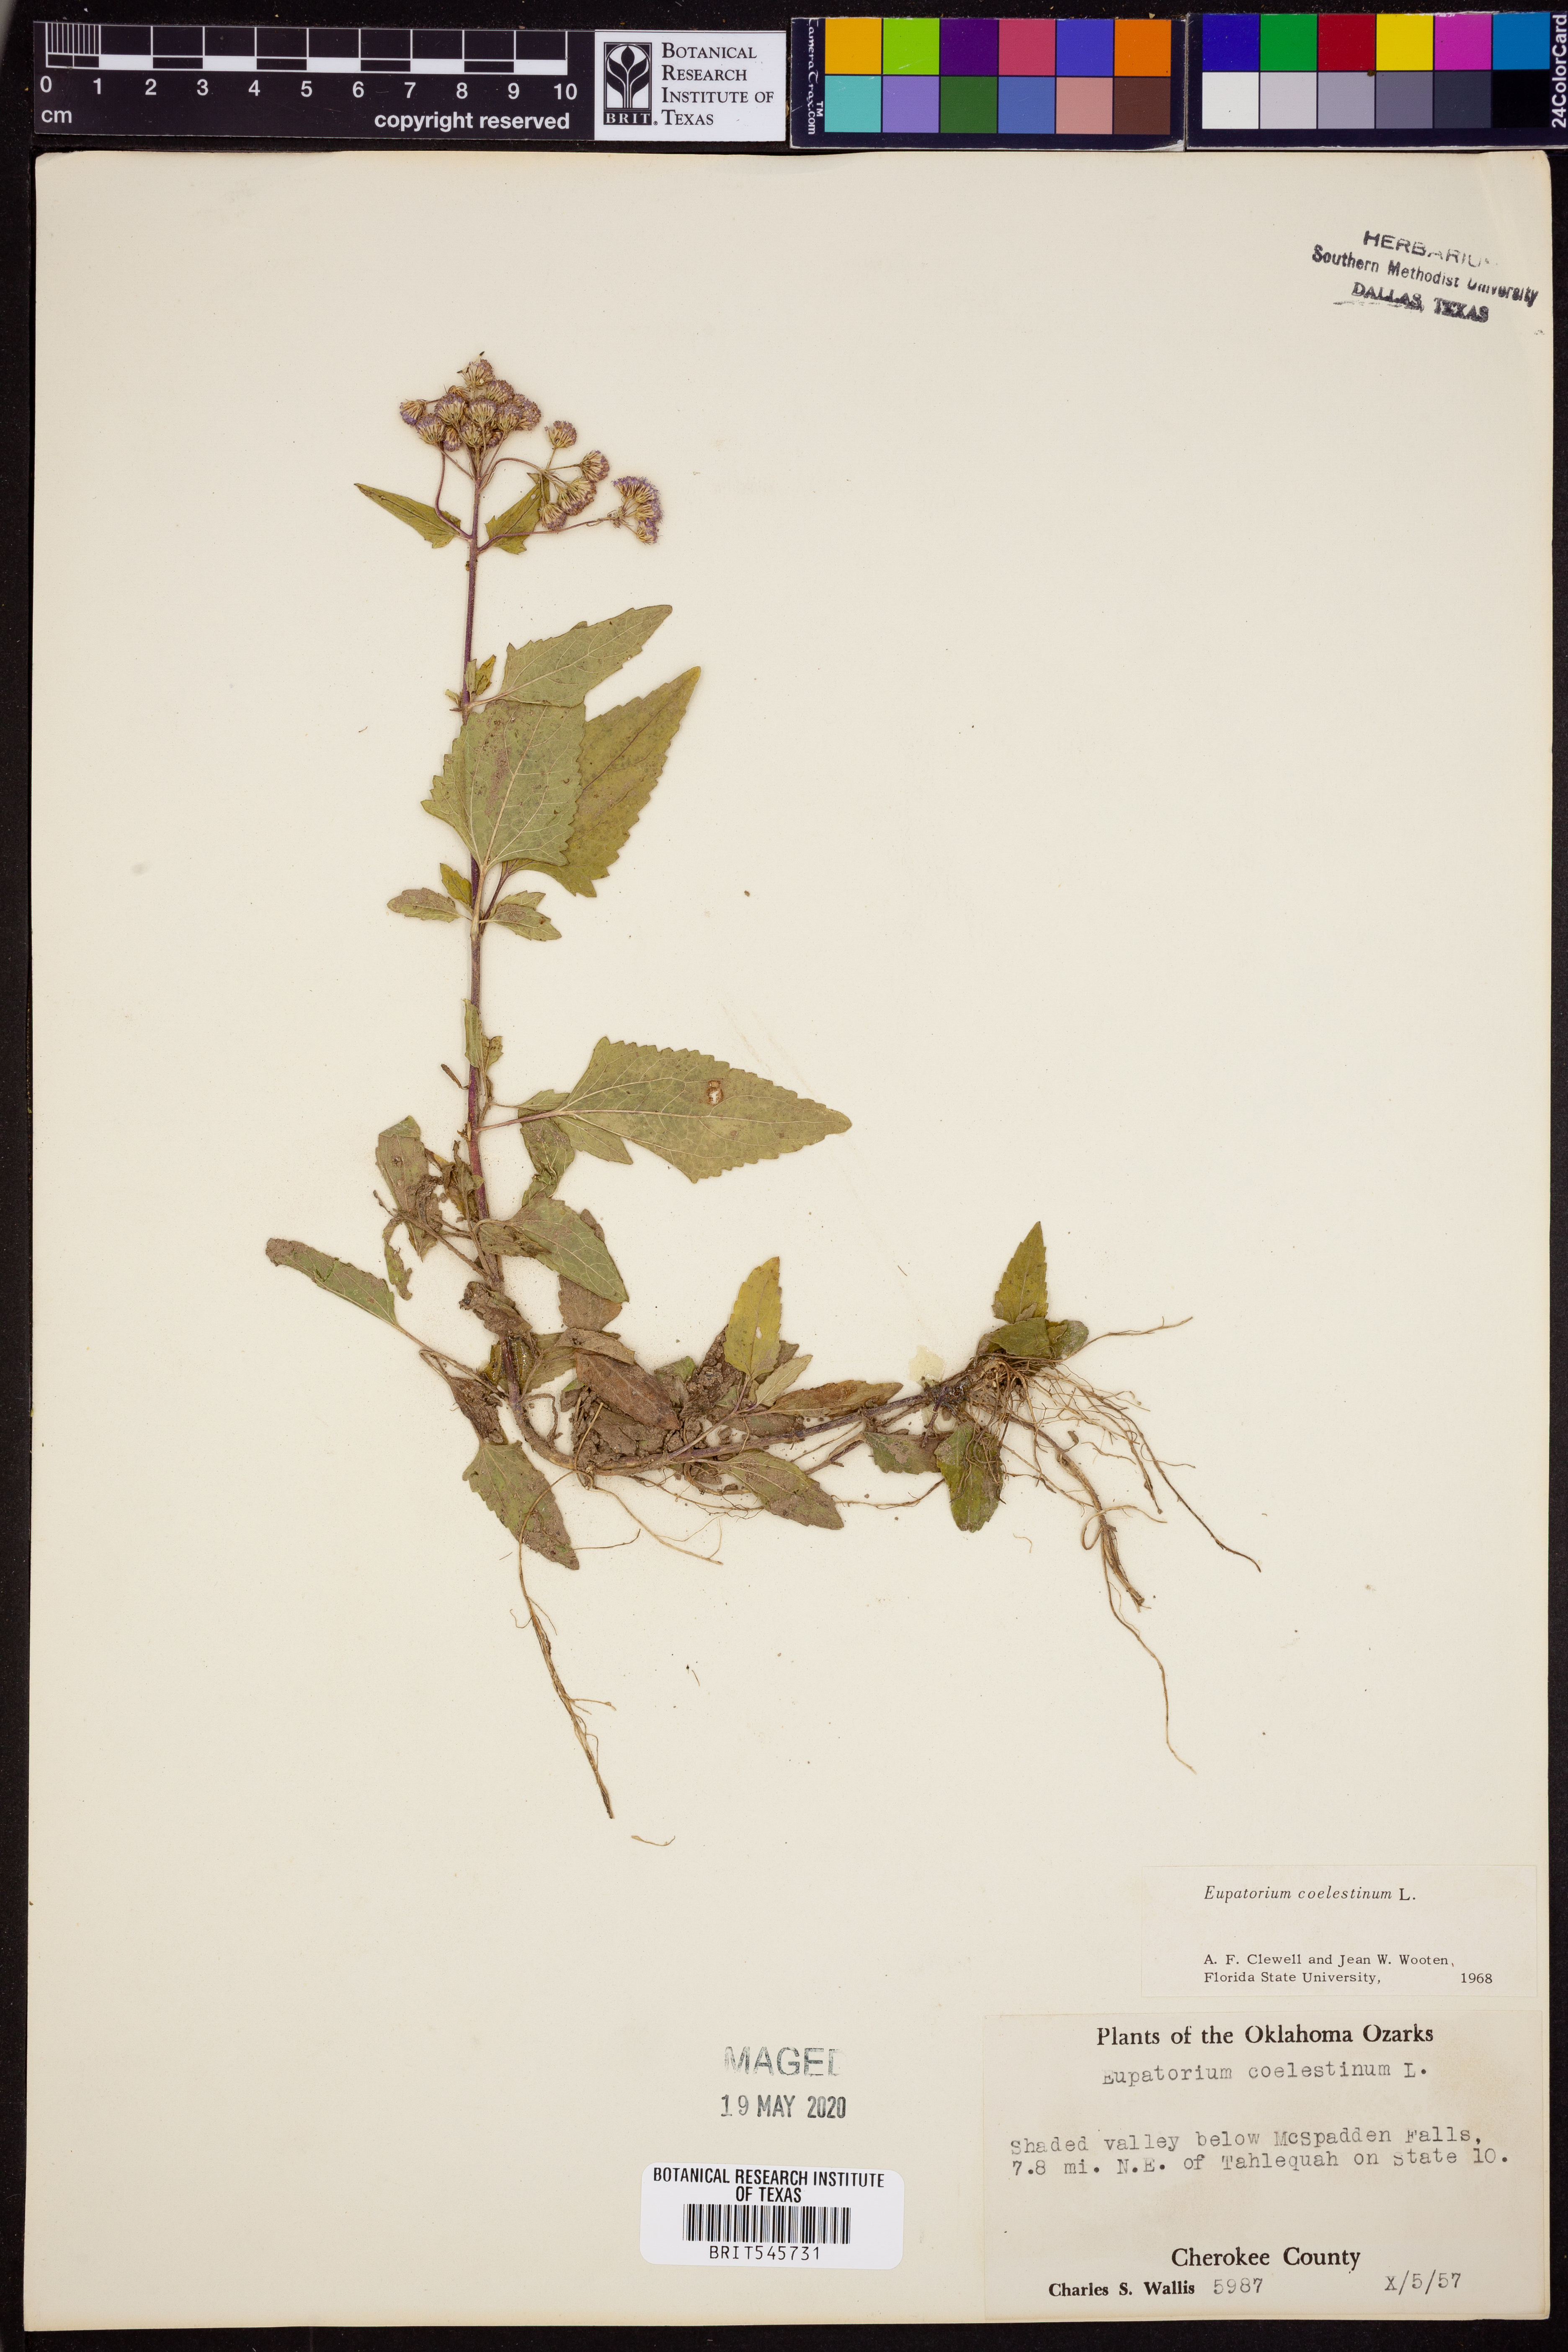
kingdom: Plantae
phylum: Tracheophyta
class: Magnoliopsida
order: Asterales
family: Asteraceae
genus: Conoclinium
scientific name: Conoclinium coelestinum
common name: Blue mistflower
